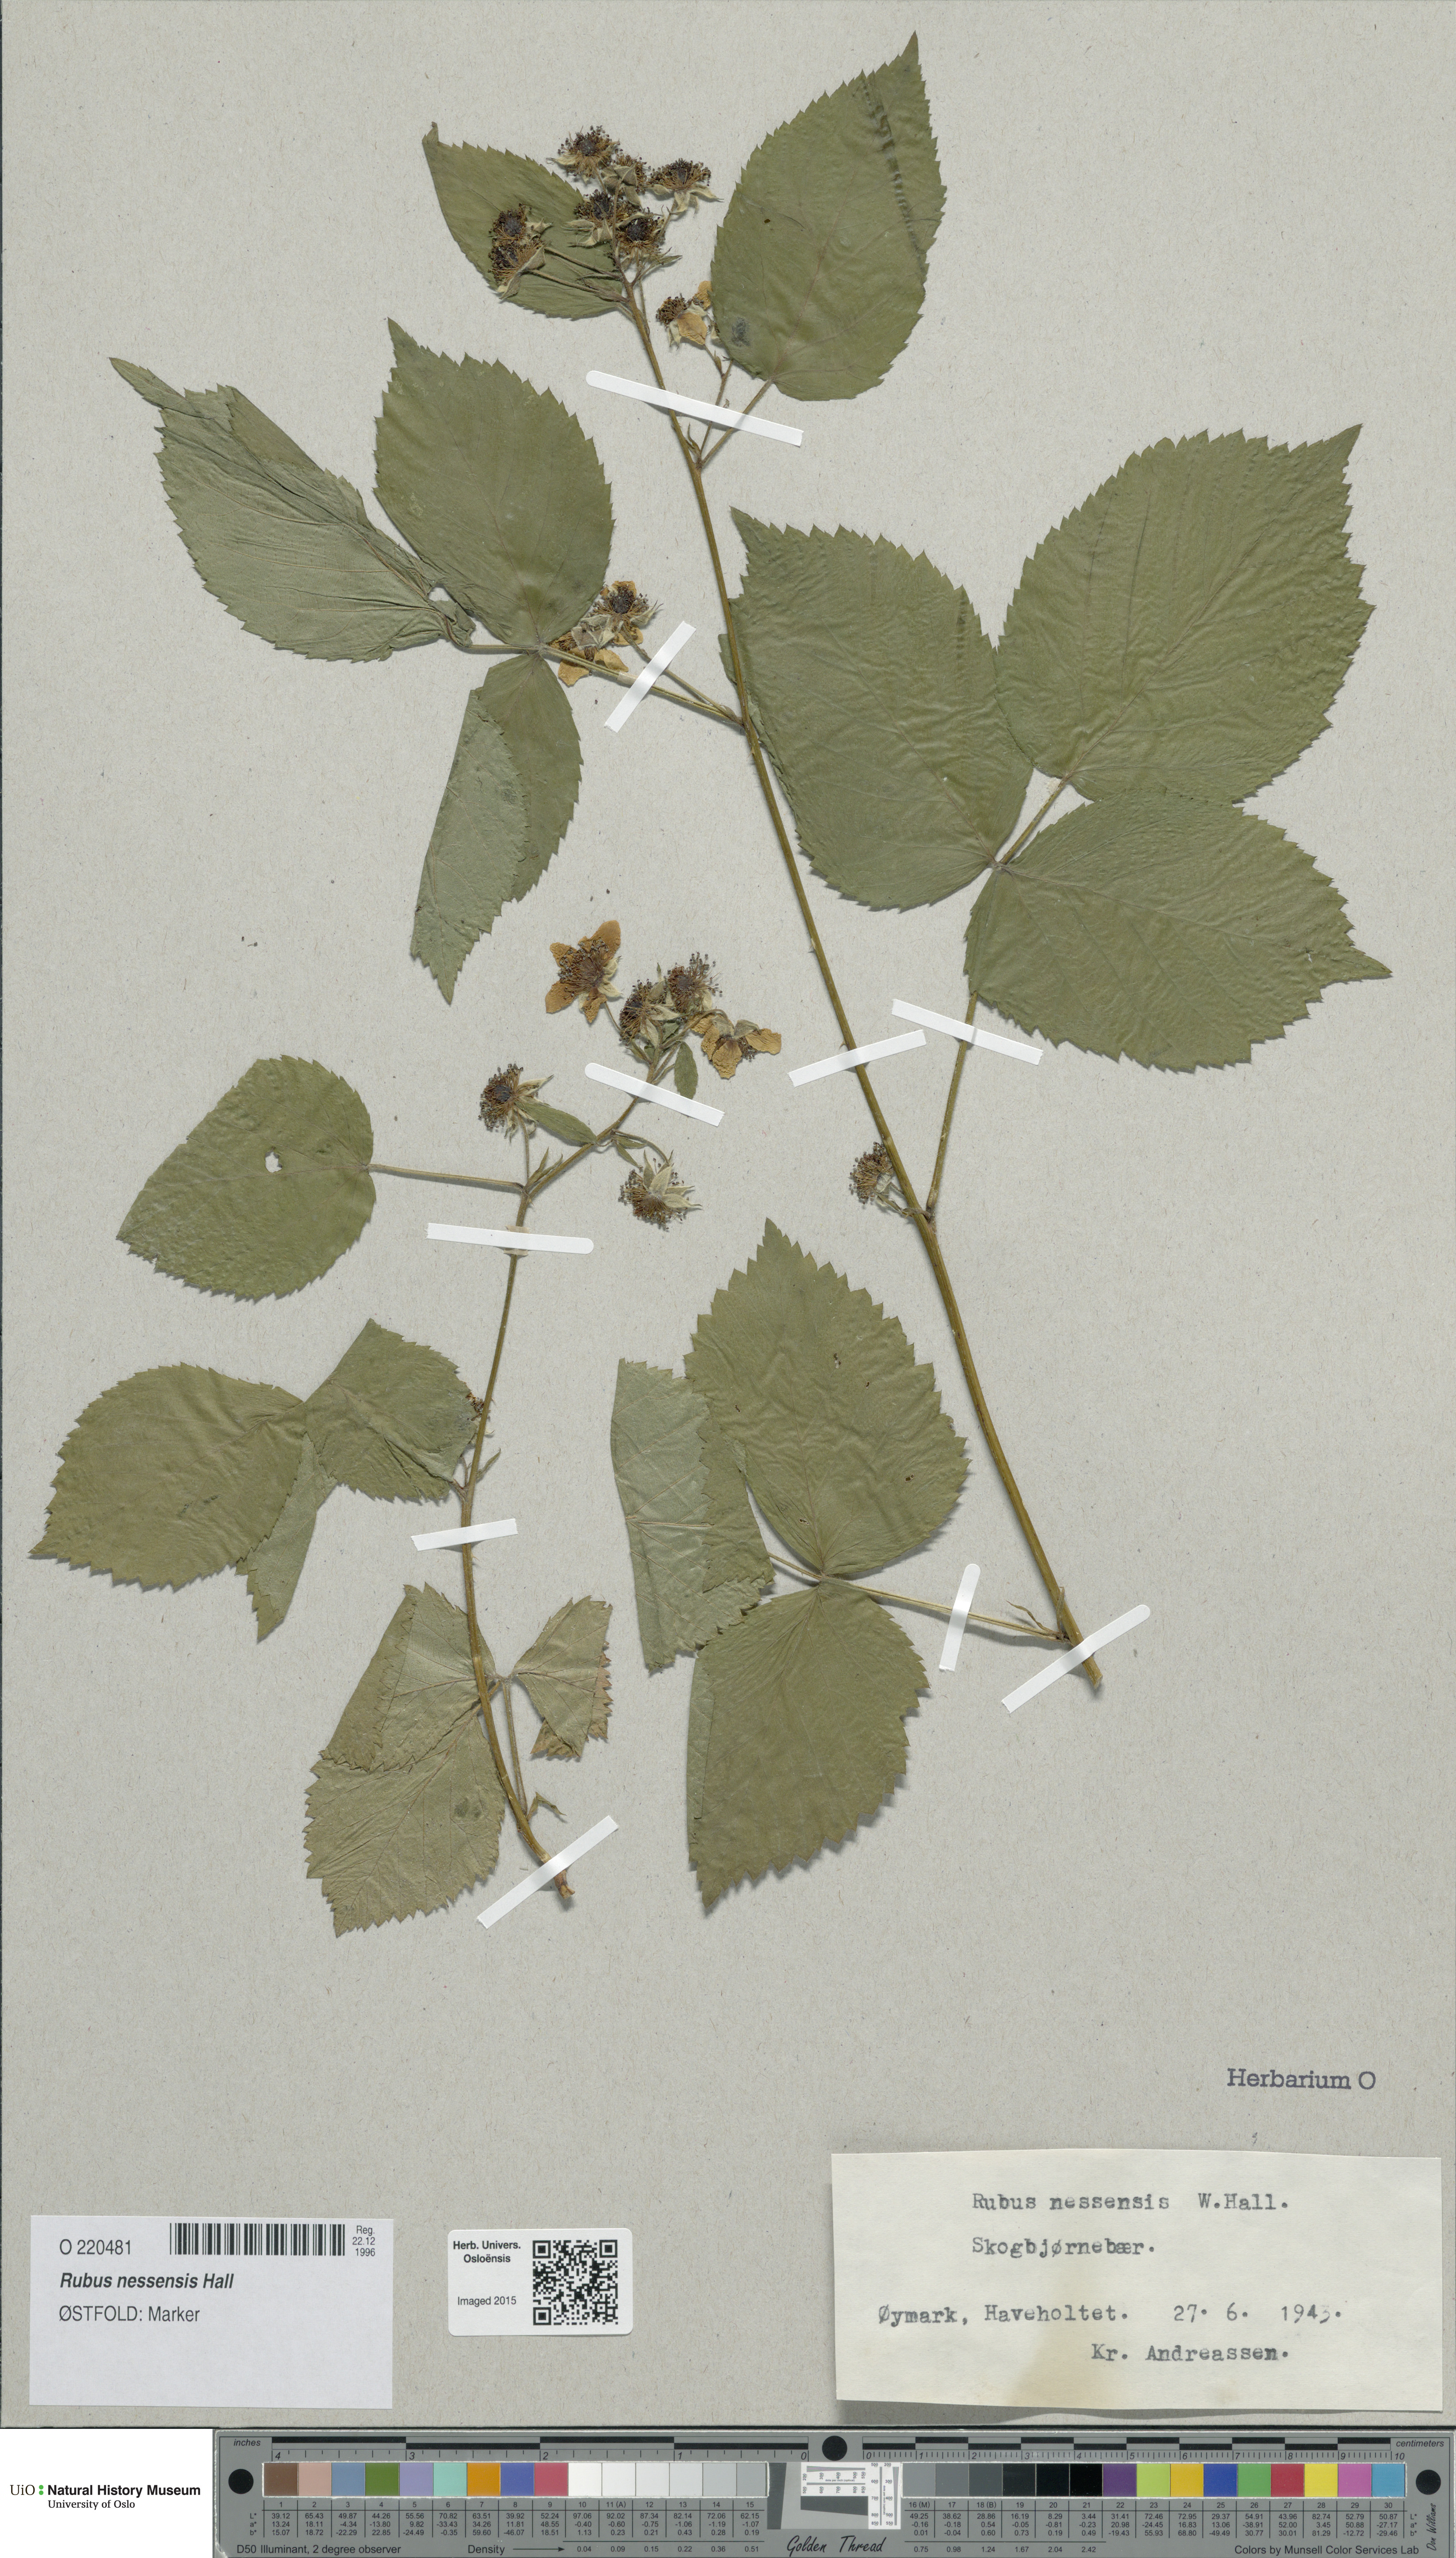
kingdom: Plantae
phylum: Tracheophyta
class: Magnoliopsida
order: Rosales
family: Rosaceae
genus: Rubus
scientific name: Rubus polonicus
